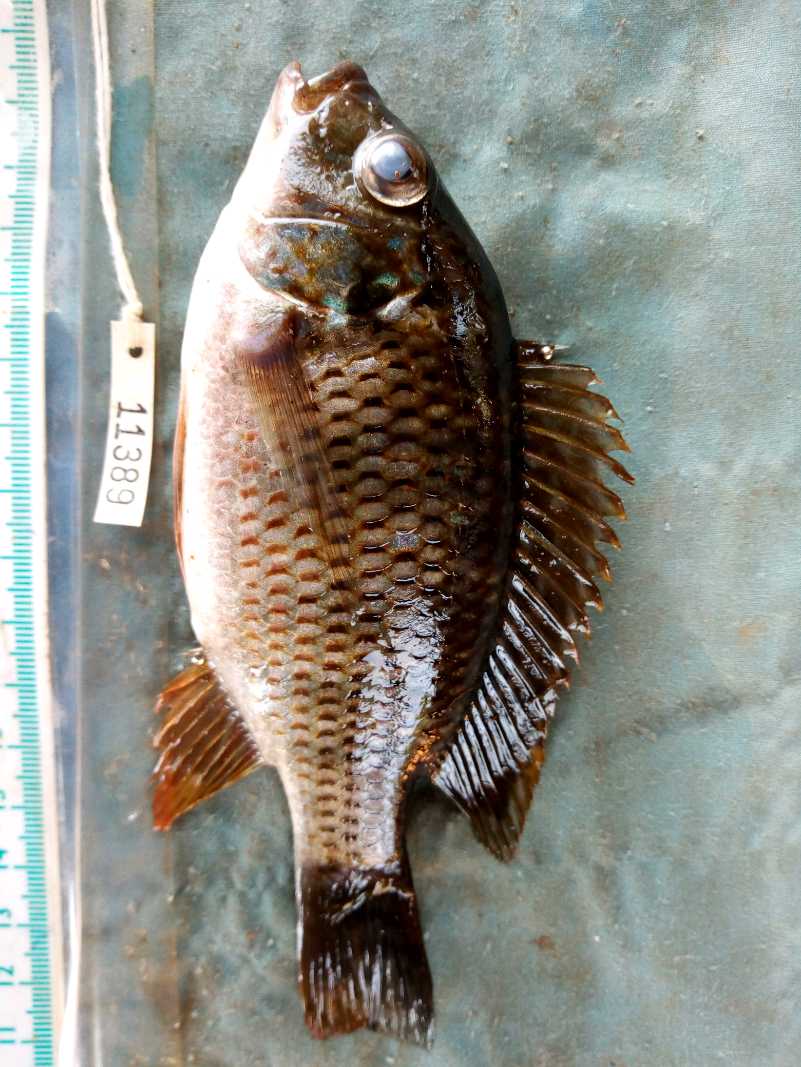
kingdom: Animalia
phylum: Chordata
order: Perciformes
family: Cichlidae
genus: Coptodon
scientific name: Coptodon rendalli
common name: Redbreast tilapia
